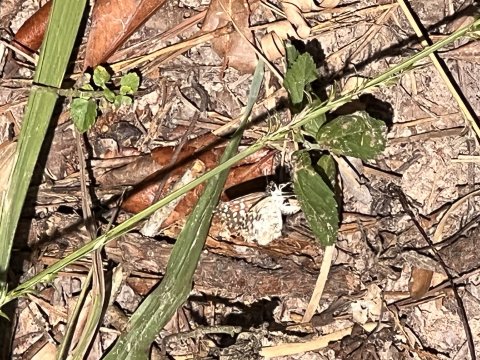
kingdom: Animalia
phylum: Arthropoda
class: Insecta
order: Lepidoptera
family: Hesperiidae
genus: Pyrgus
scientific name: Pyrgus communis
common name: Common Checkered-Skipper
